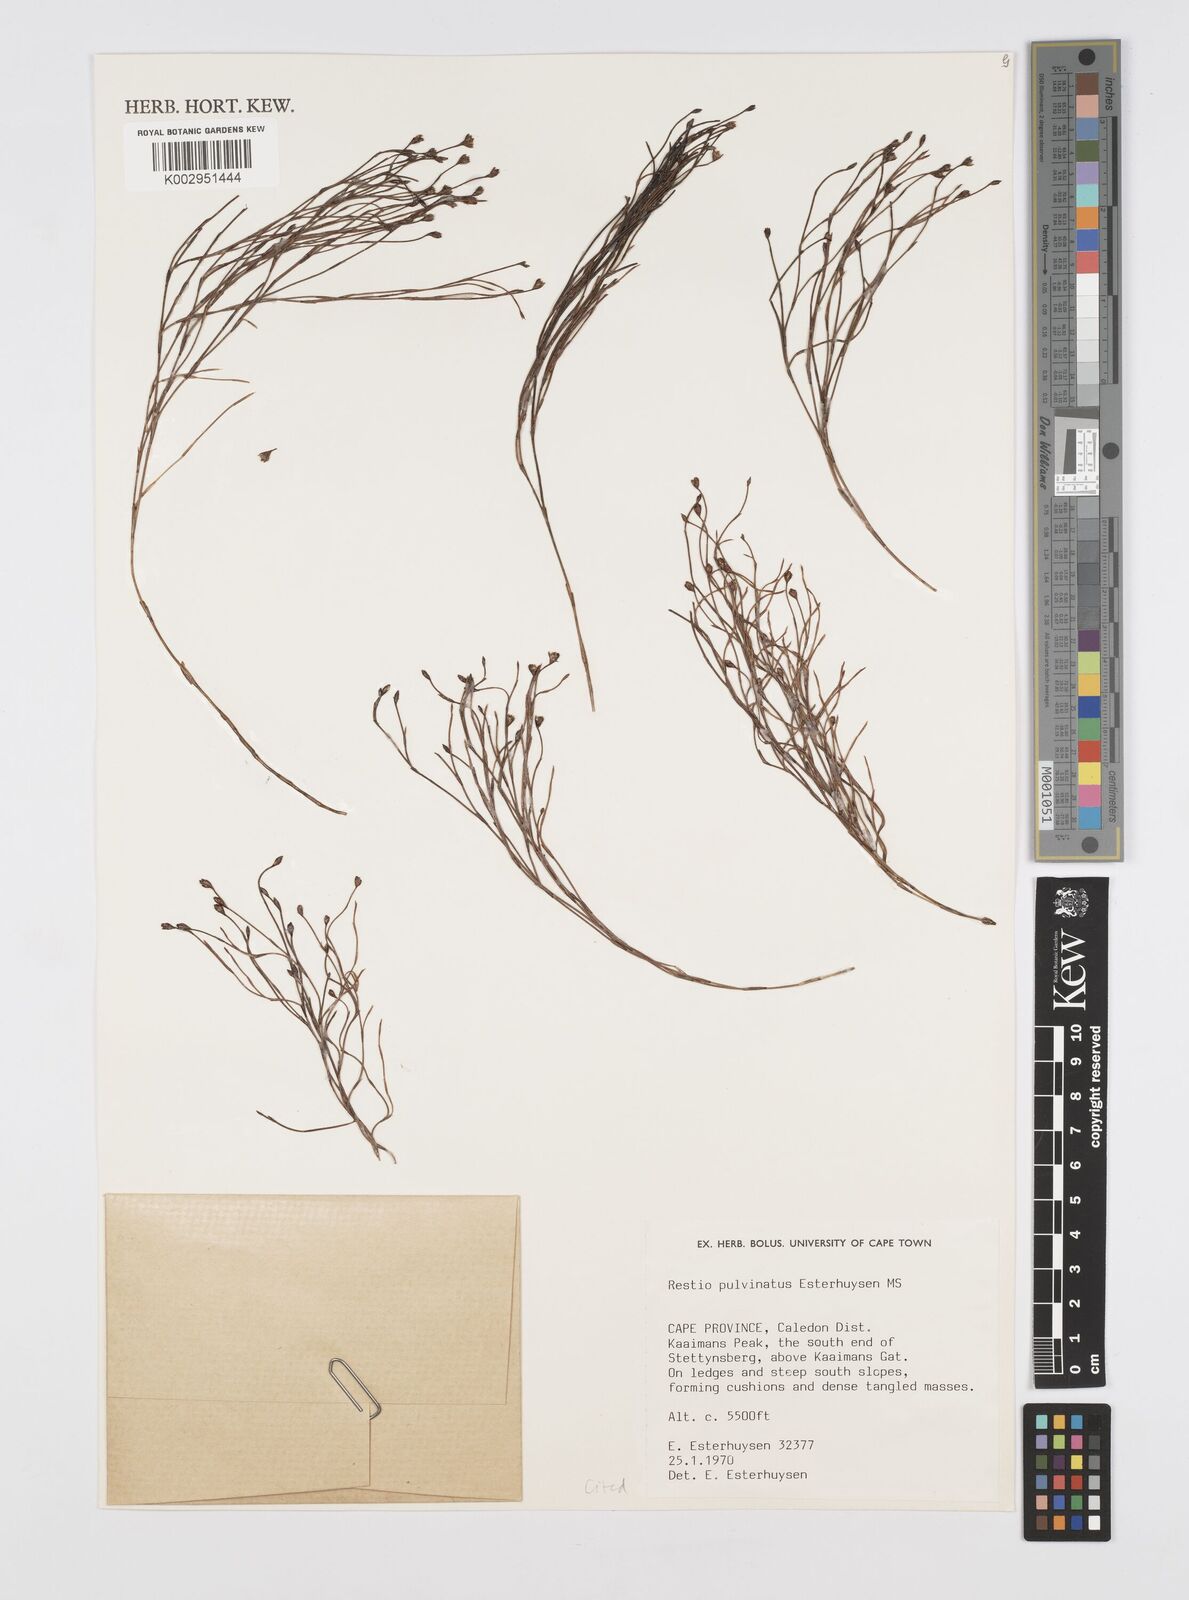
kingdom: Plantae
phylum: Tracheophyta
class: Liliopsida
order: Poales
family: Restionaceae
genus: Restio
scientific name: Restio pulvinatus
